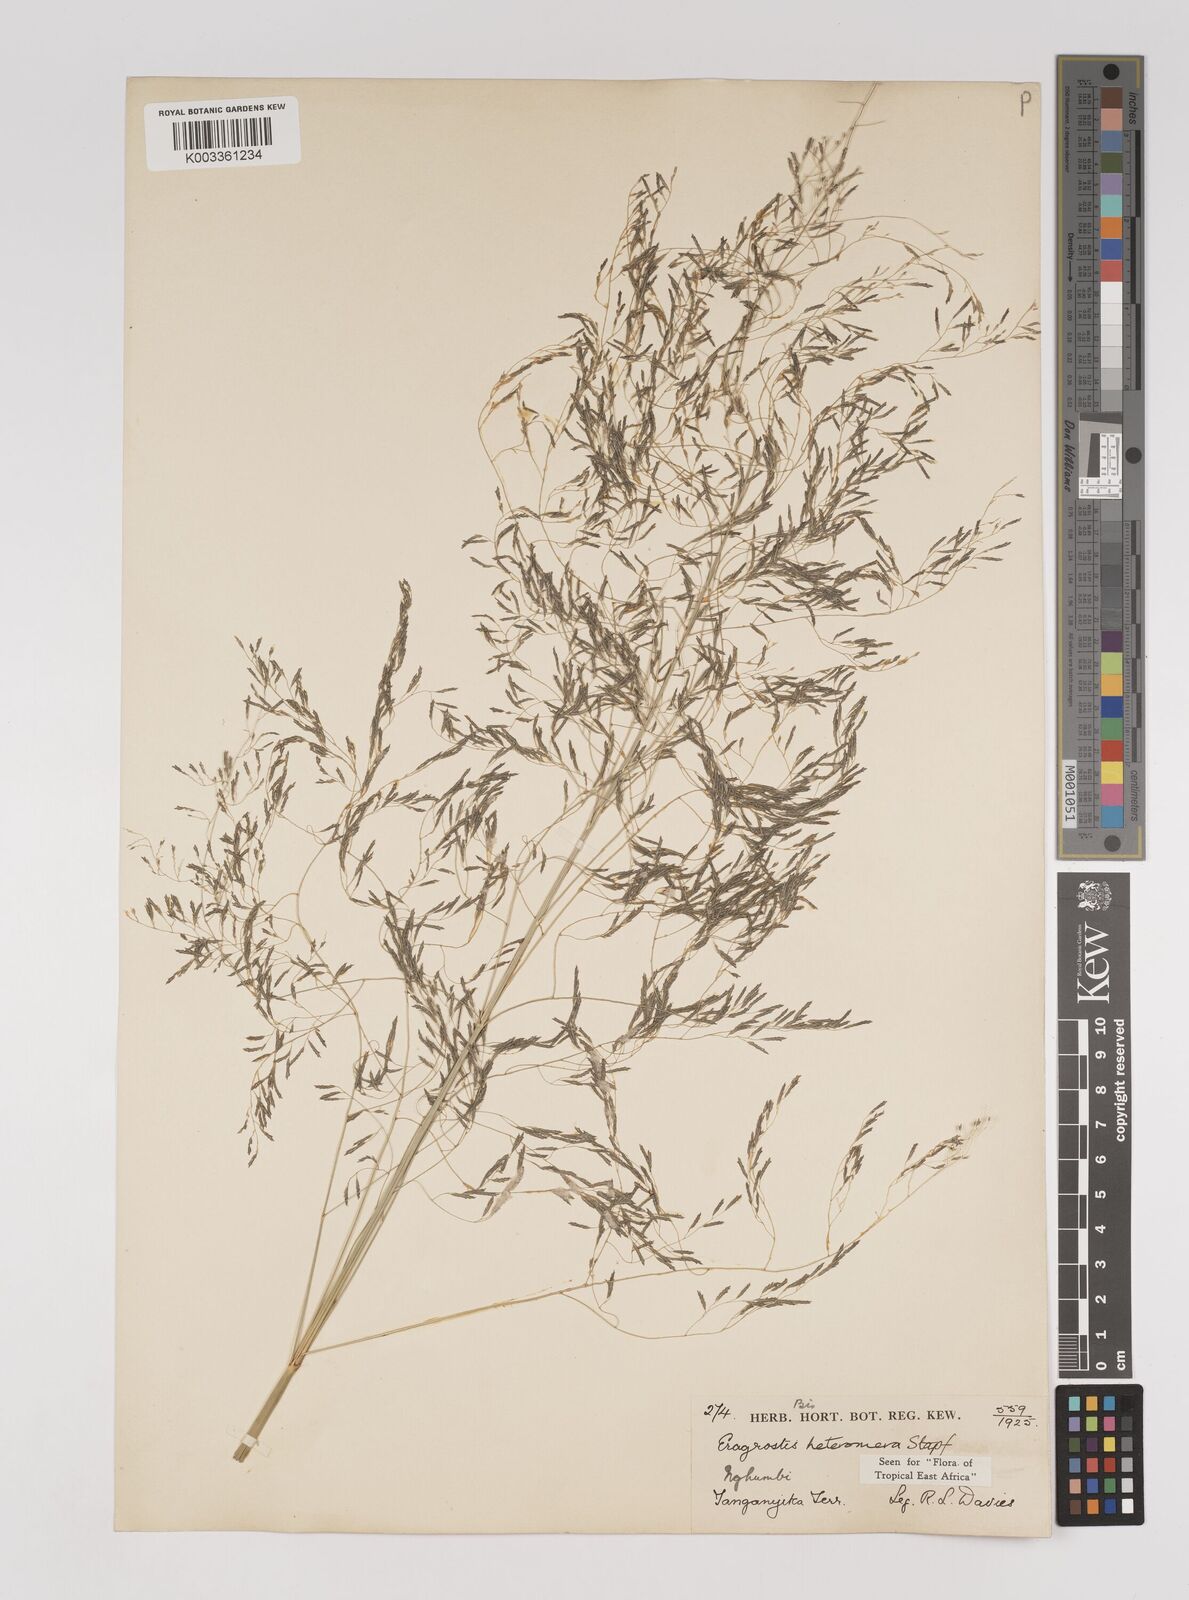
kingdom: Plantae
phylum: Tracheophyta
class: Liliopsida
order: Poales
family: Poaceae
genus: Eragrostis
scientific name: Eragrostis heteromera
